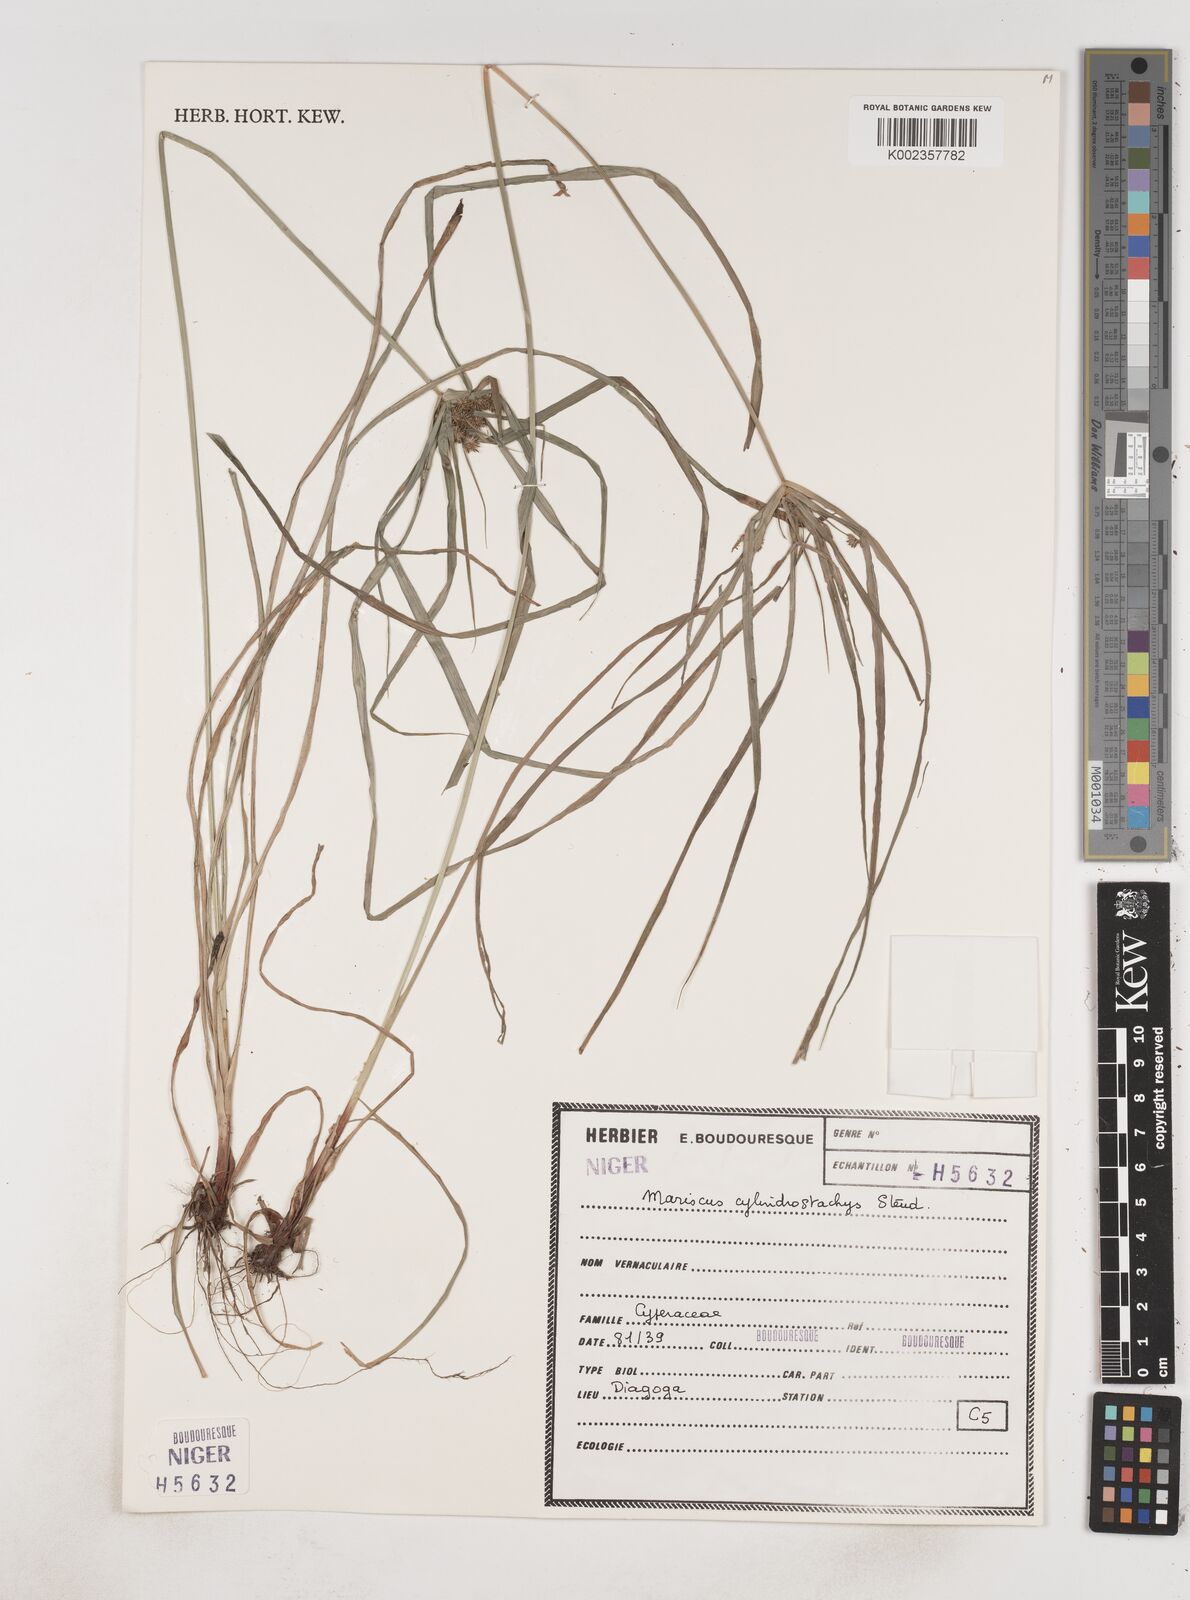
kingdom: Plantae
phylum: Tracheophyta
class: Liliopsida
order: Poales
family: Cyperaceae
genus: Cyperus
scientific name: Cyperus sublimis
